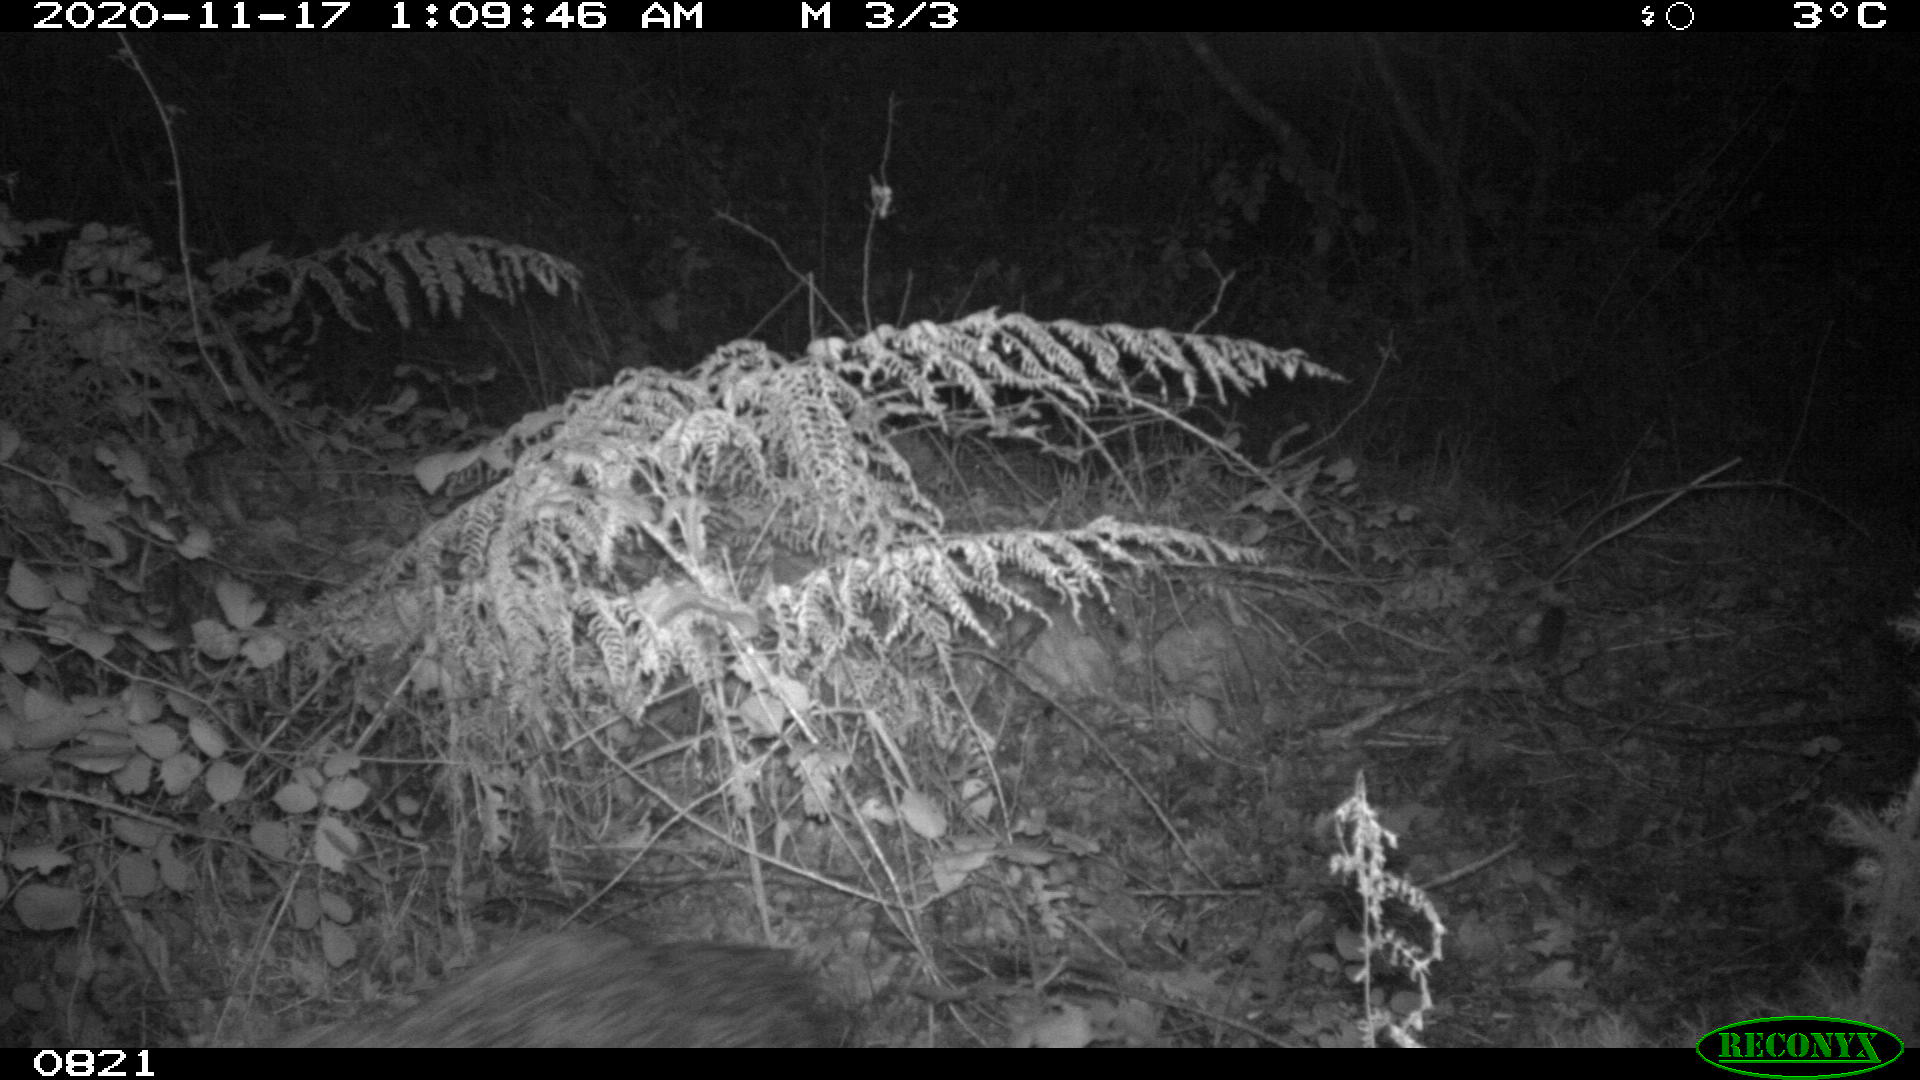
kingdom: Animalia
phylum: Chordata
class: Mammalia
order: Artiodactyla
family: Suidae
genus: Sus
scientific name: Sus scrofa
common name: Wild boar
